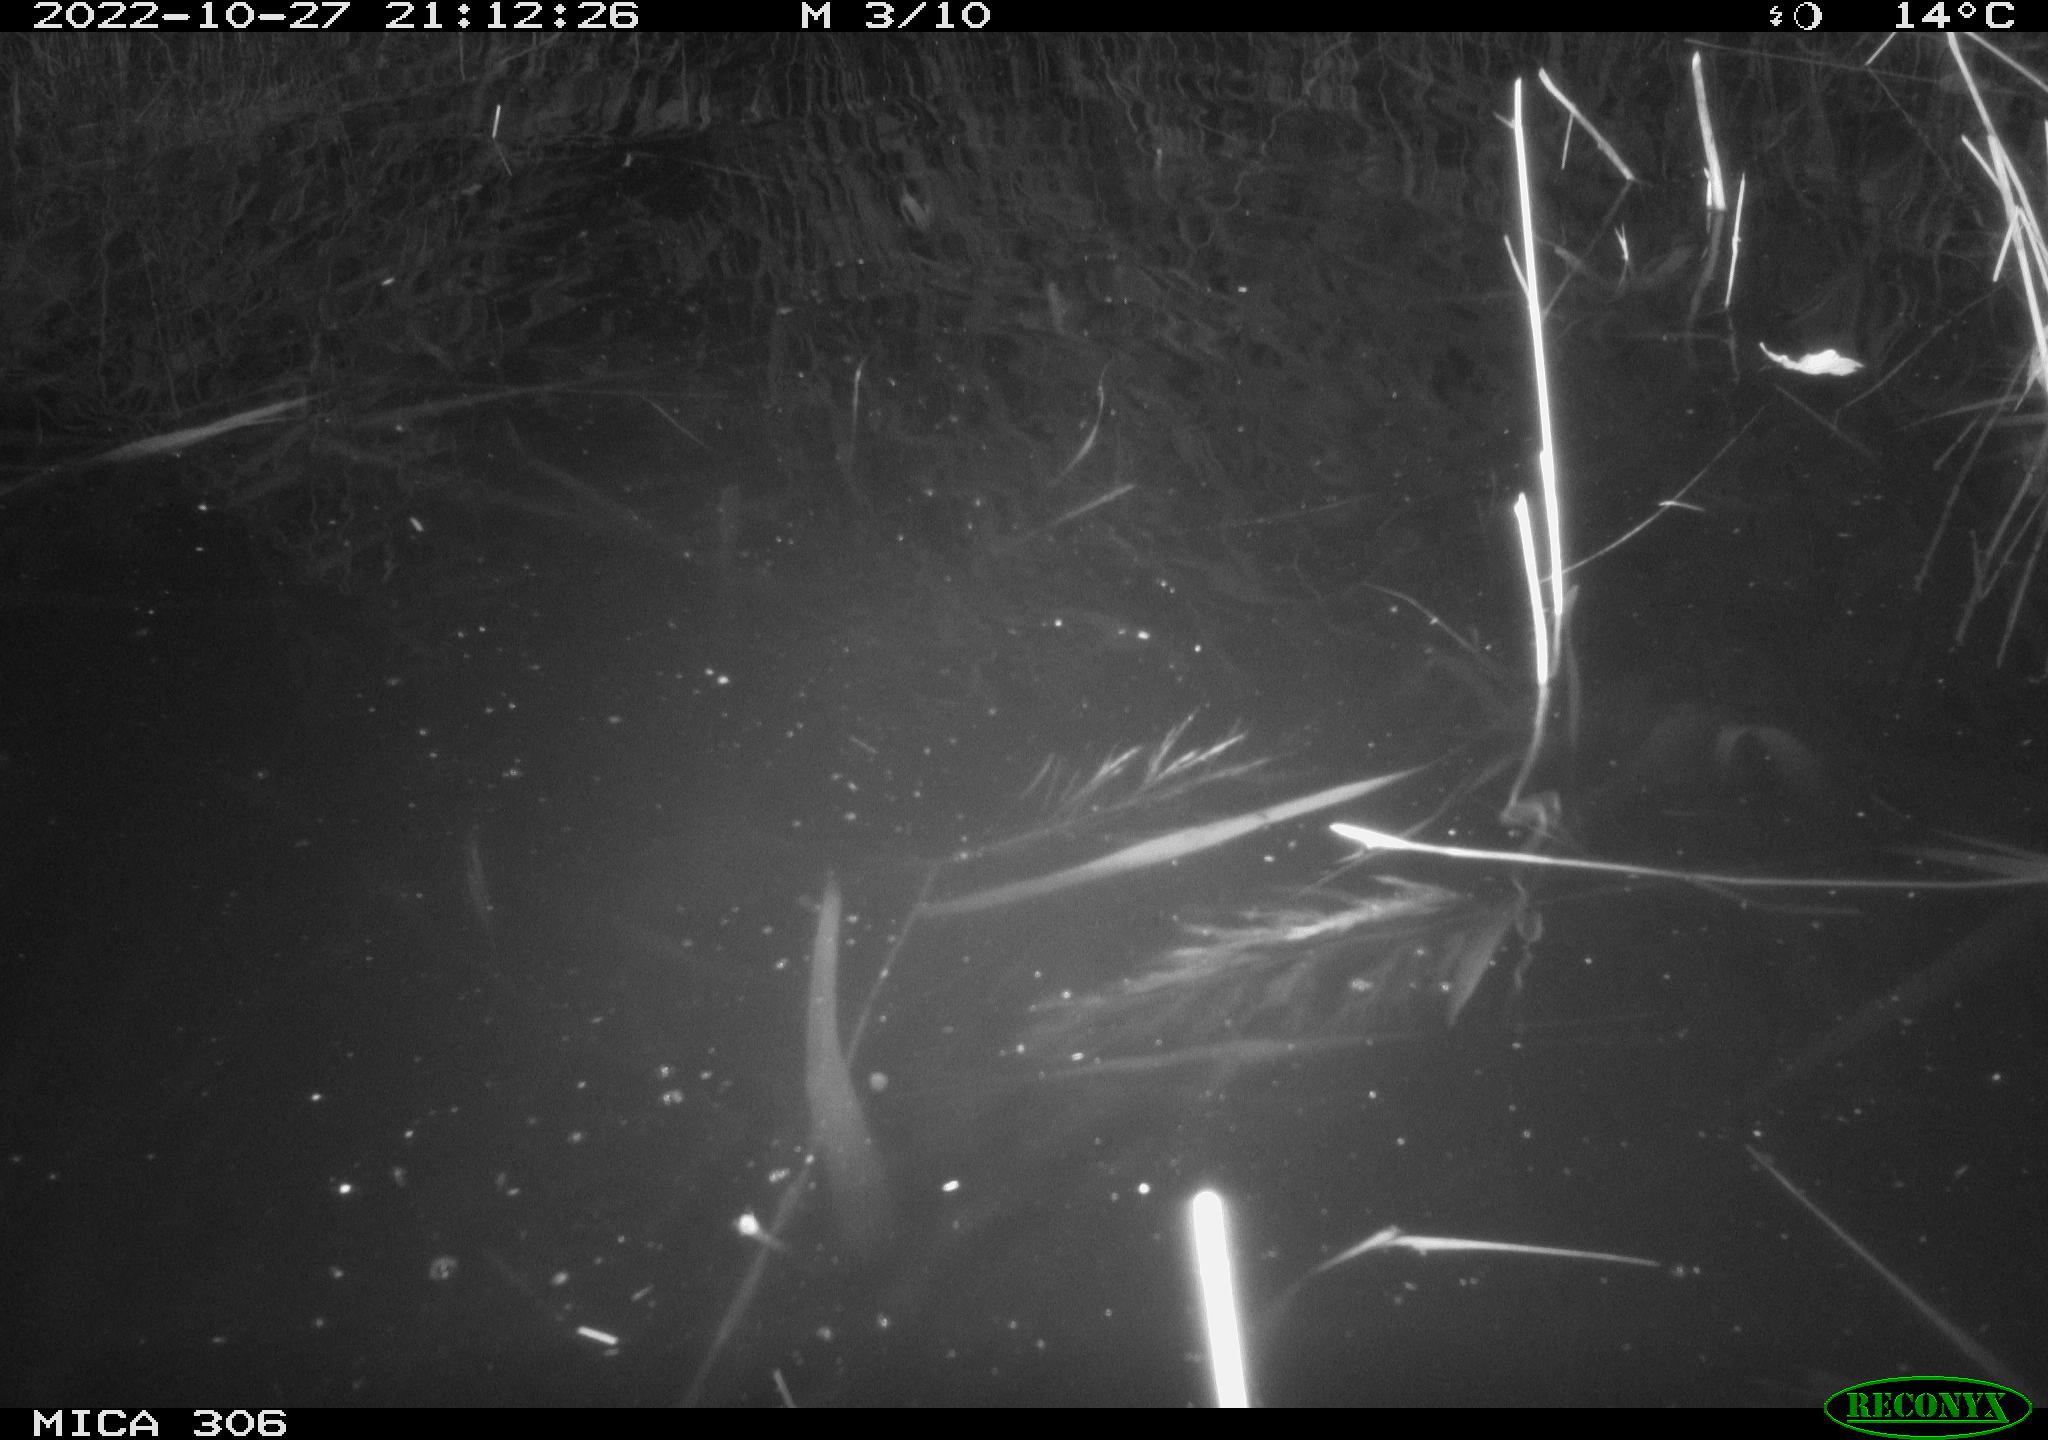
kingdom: Animalia
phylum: Chordata
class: Mammalia
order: Rodentia
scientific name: Rodentia
